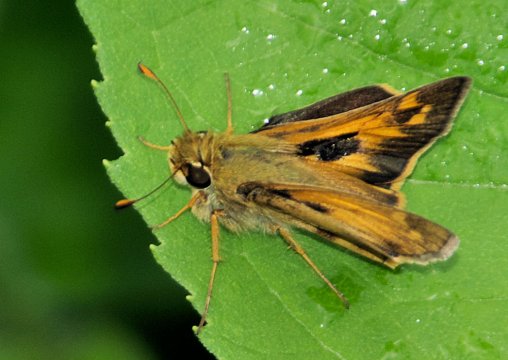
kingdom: Animalia
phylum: Arthropoda
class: Insecta
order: Lepidoptera
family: Hesperiidae
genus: Atalopedes
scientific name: Atalopedes campestris
